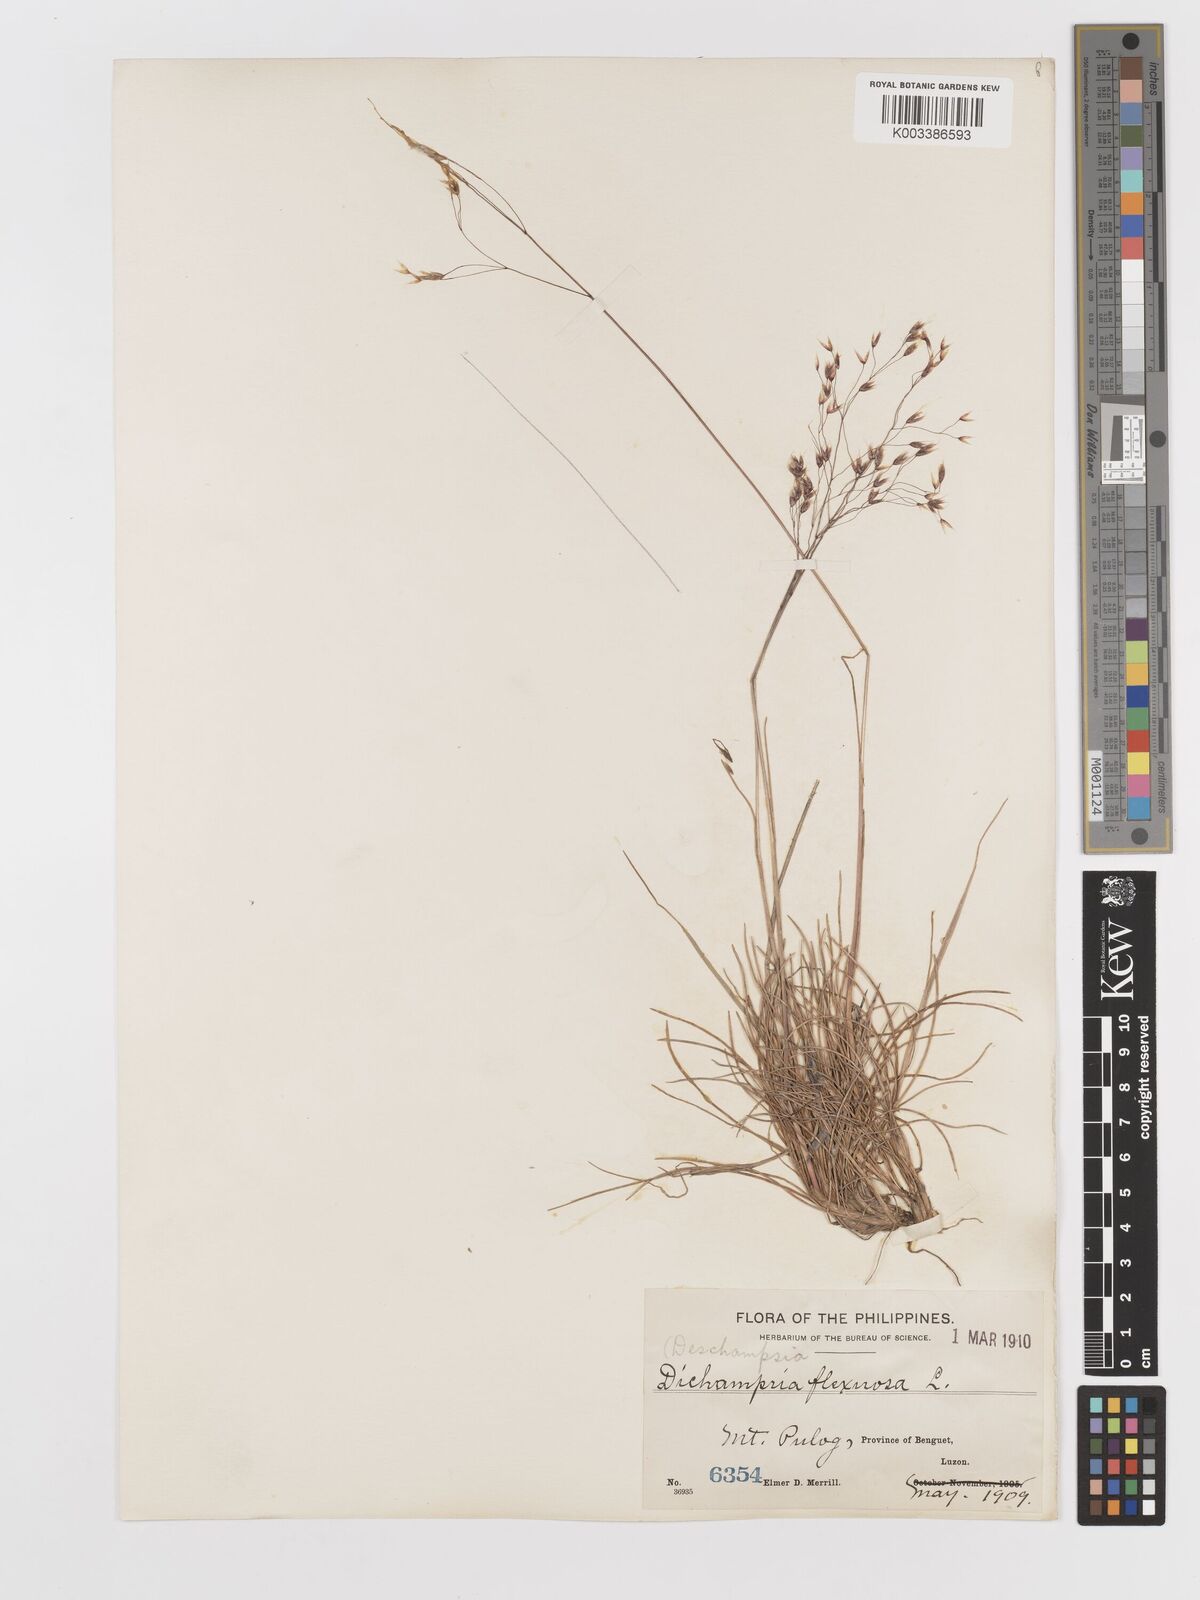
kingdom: Plantae
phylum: Tracheophyta
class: Liliopsida
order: Poales
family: Poaceae
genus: Avenella
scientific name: Avenella flexuosa
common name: Wavy hairgrass
